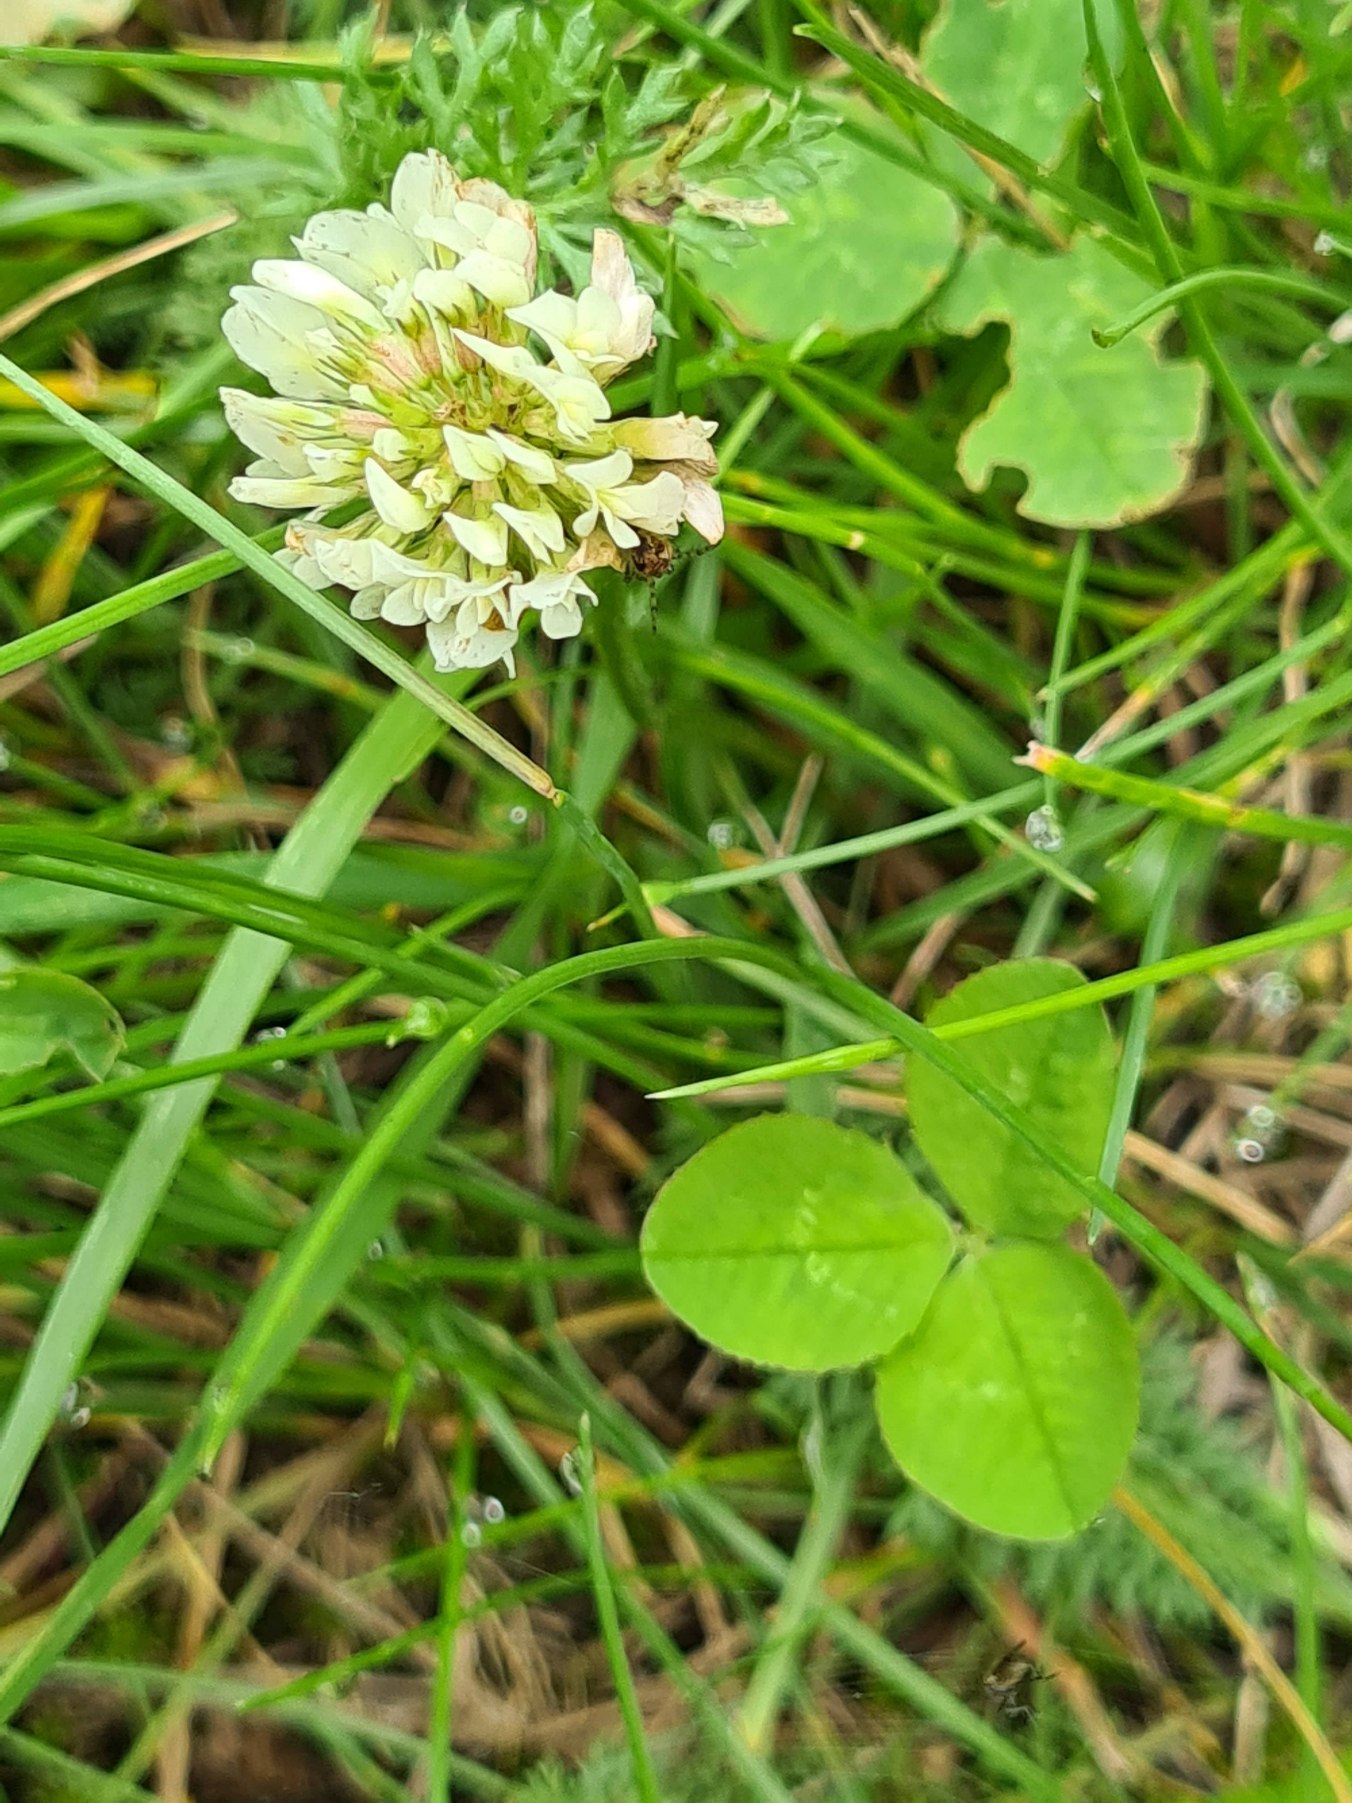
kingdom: Plantae
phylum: Tracheophyta
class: Magnoliopsida
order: Fabales
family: Fabaceae
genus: Trifolium
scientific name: Trifolium repens
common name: Hvid-kløver
